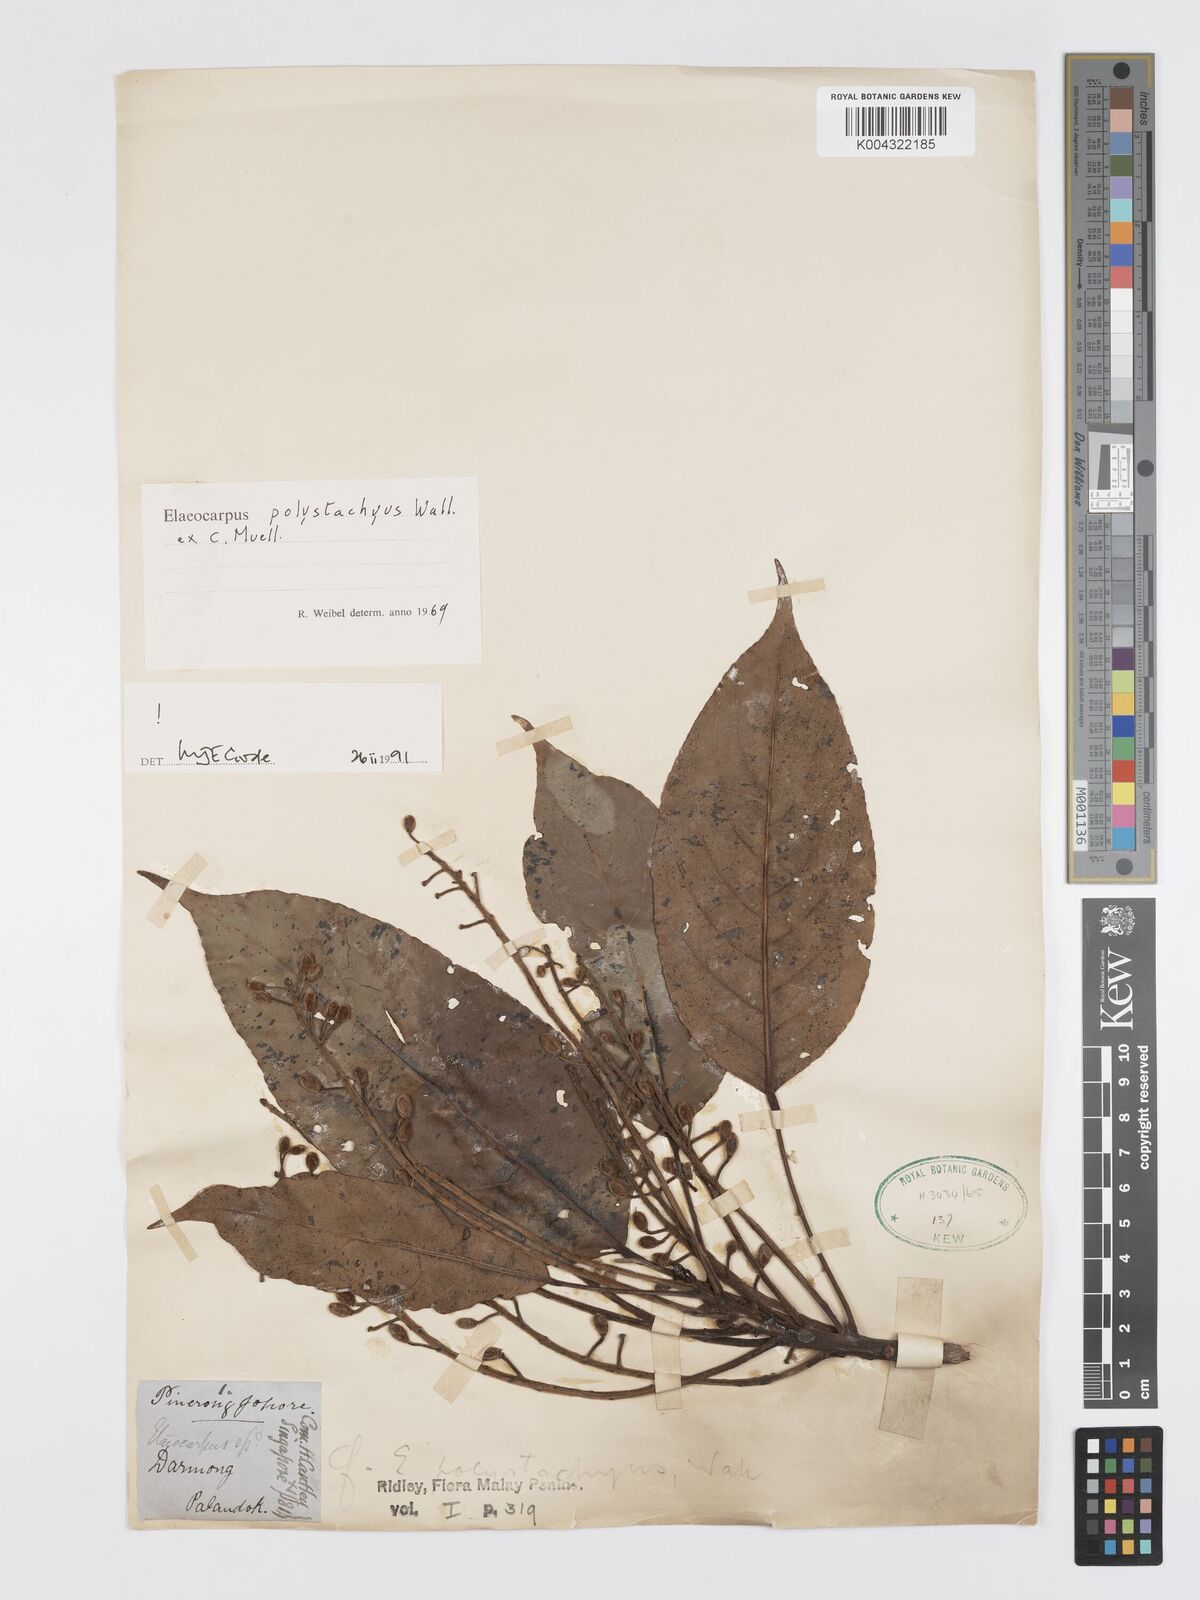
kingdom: Plantae
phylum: Tracheophyta
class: Magnoliopsida
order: Oxalidales
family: Elaeocarpaceae
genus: Elaeocarpus
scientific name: Elaeocarpus polystachyus
